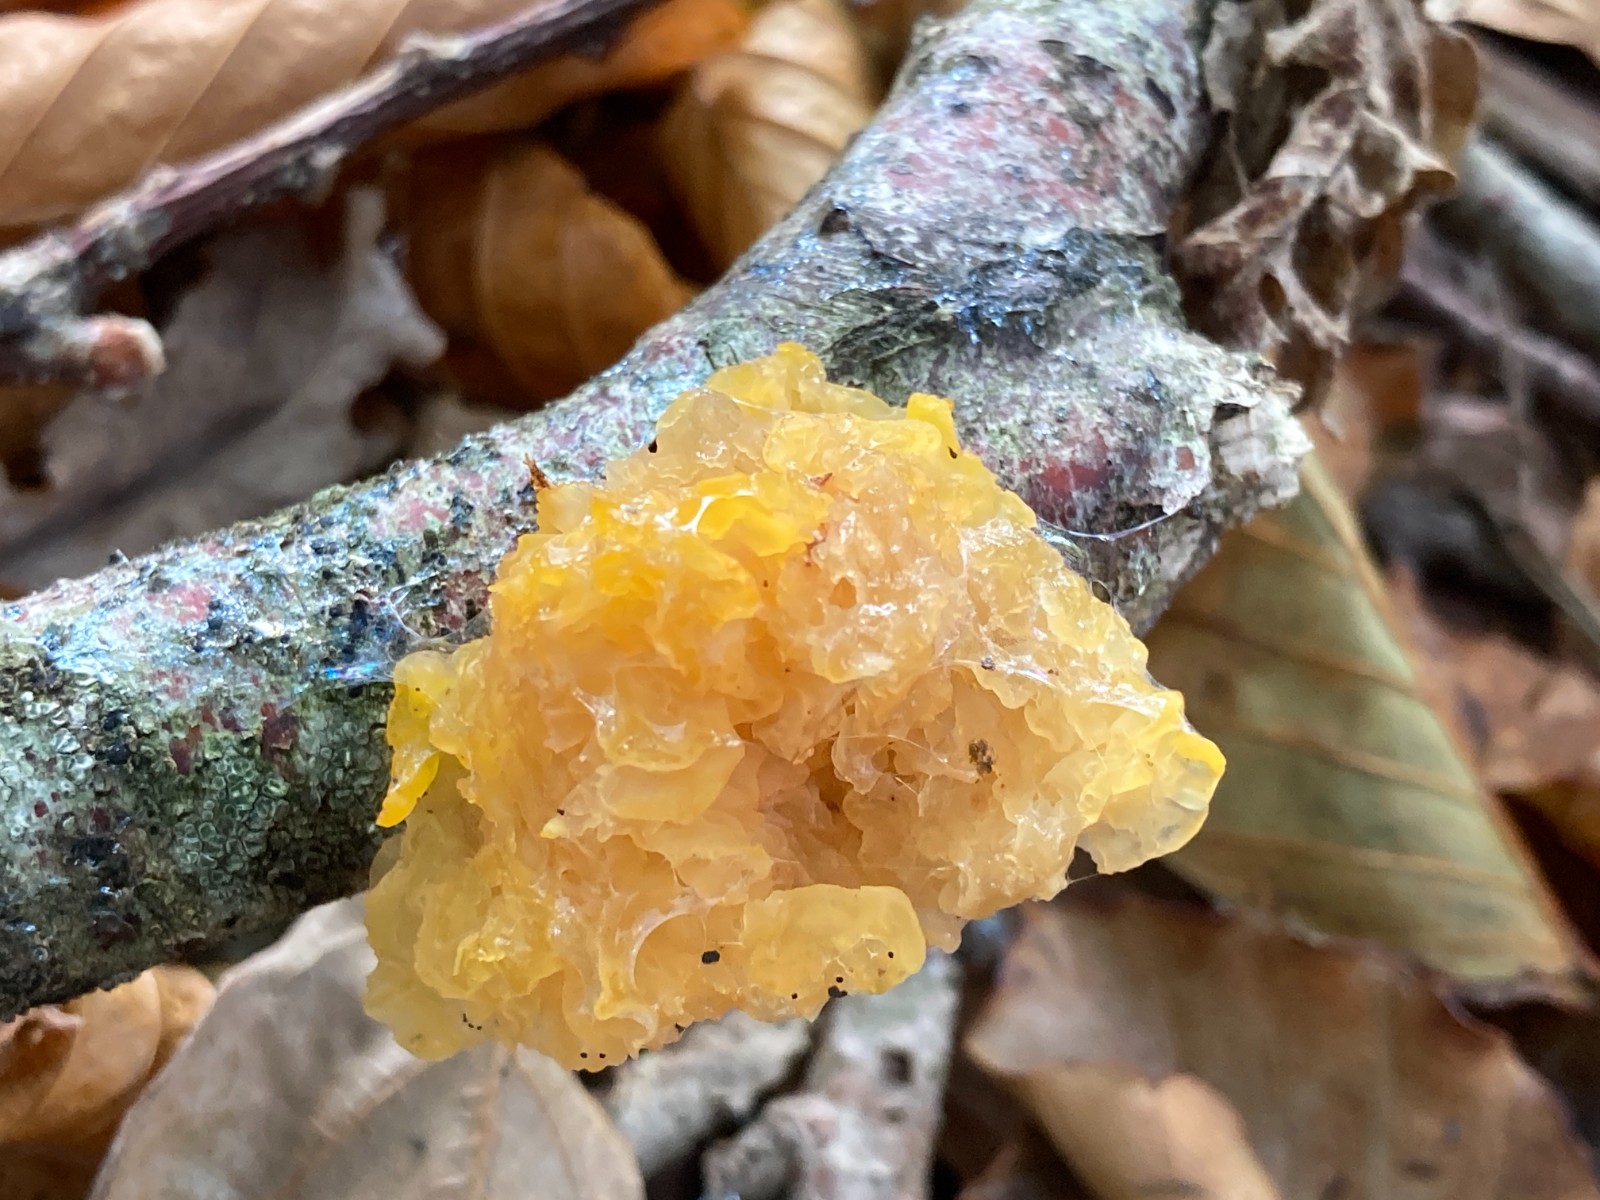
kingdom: Fungi
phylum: Basidiomycota
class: Tremellomycetes
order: Tremellales
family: Tremellaceae
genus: Tremella
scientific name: Tremella mesenterica
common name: gul bævresvamp
